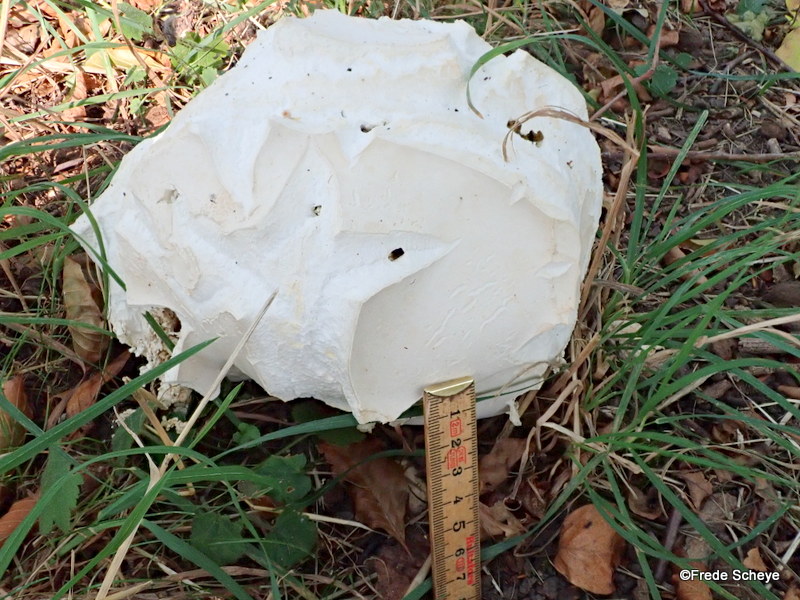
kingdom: Fungi
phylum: Basidiomycota
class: Agaricomycetes
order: Agaricales
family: Lycoperdaceae
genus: Calvatia
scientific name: Calvatia gigantea
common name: kæmpestøvbold
